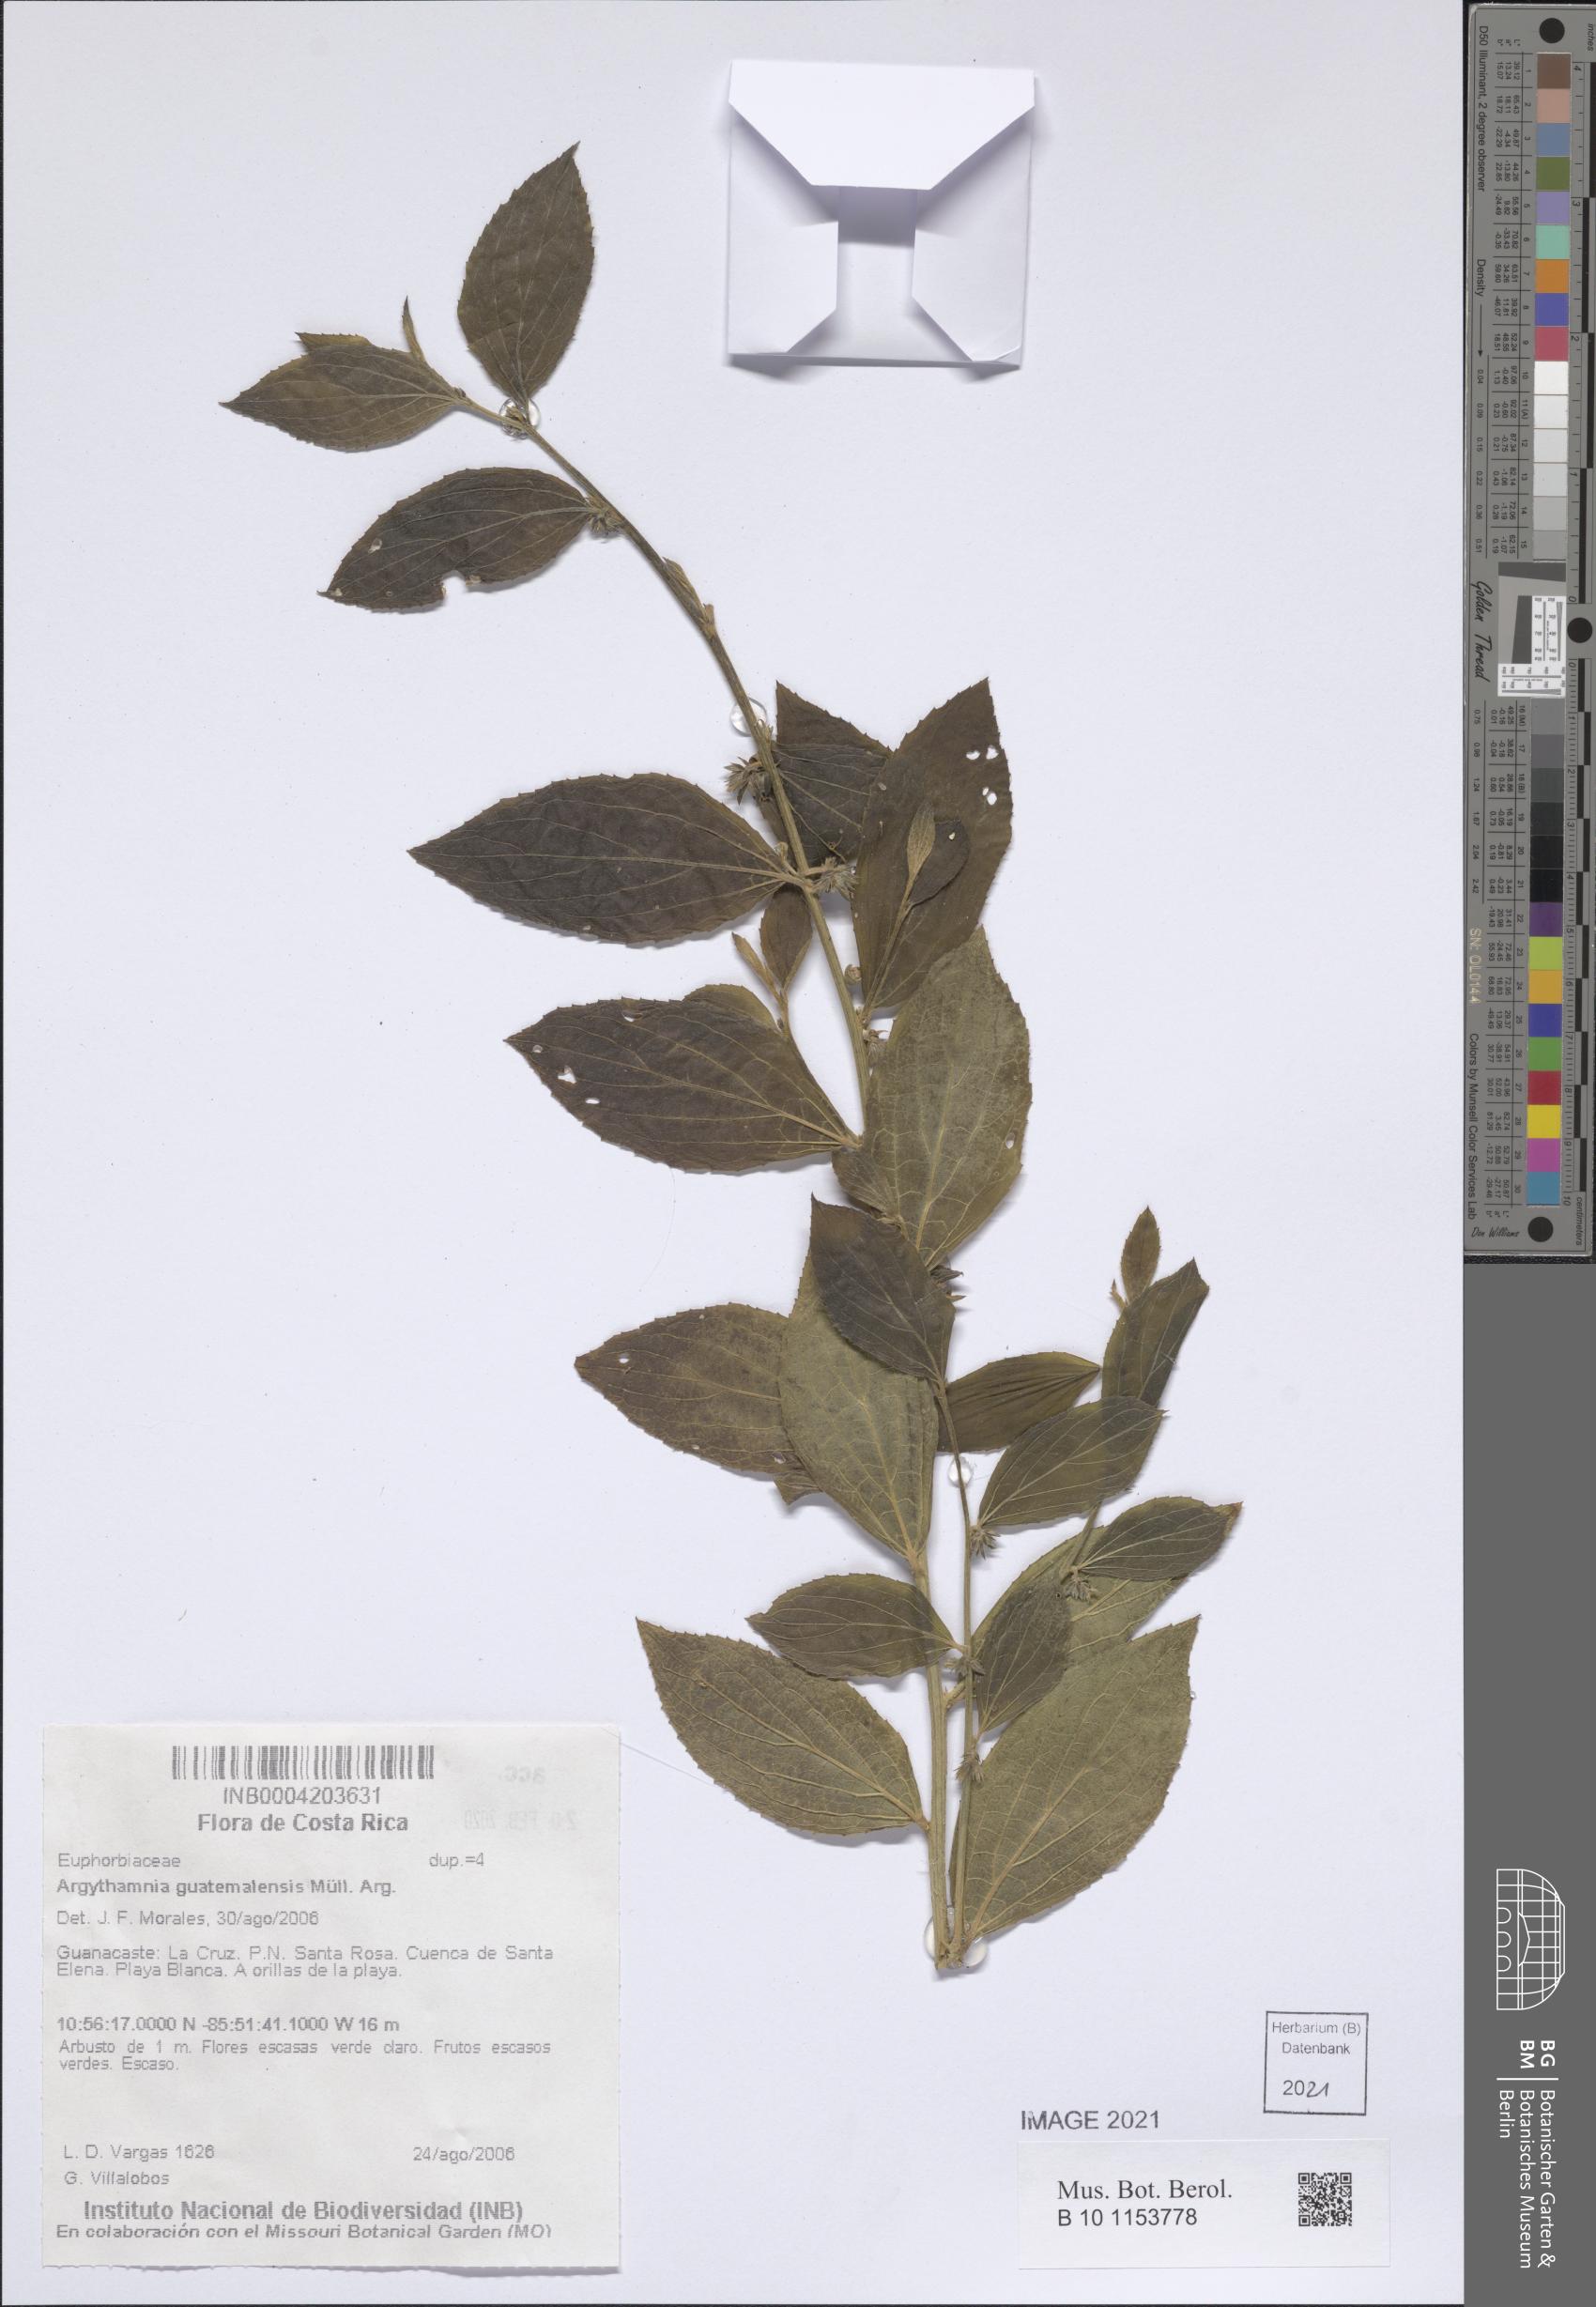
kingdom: Plantae
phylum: Tracheophyta
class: Magnoliopsida
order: Malpighiales
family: Euphorbiaceae
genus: Ditaxis
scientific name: Ditaxis guatemalensis
